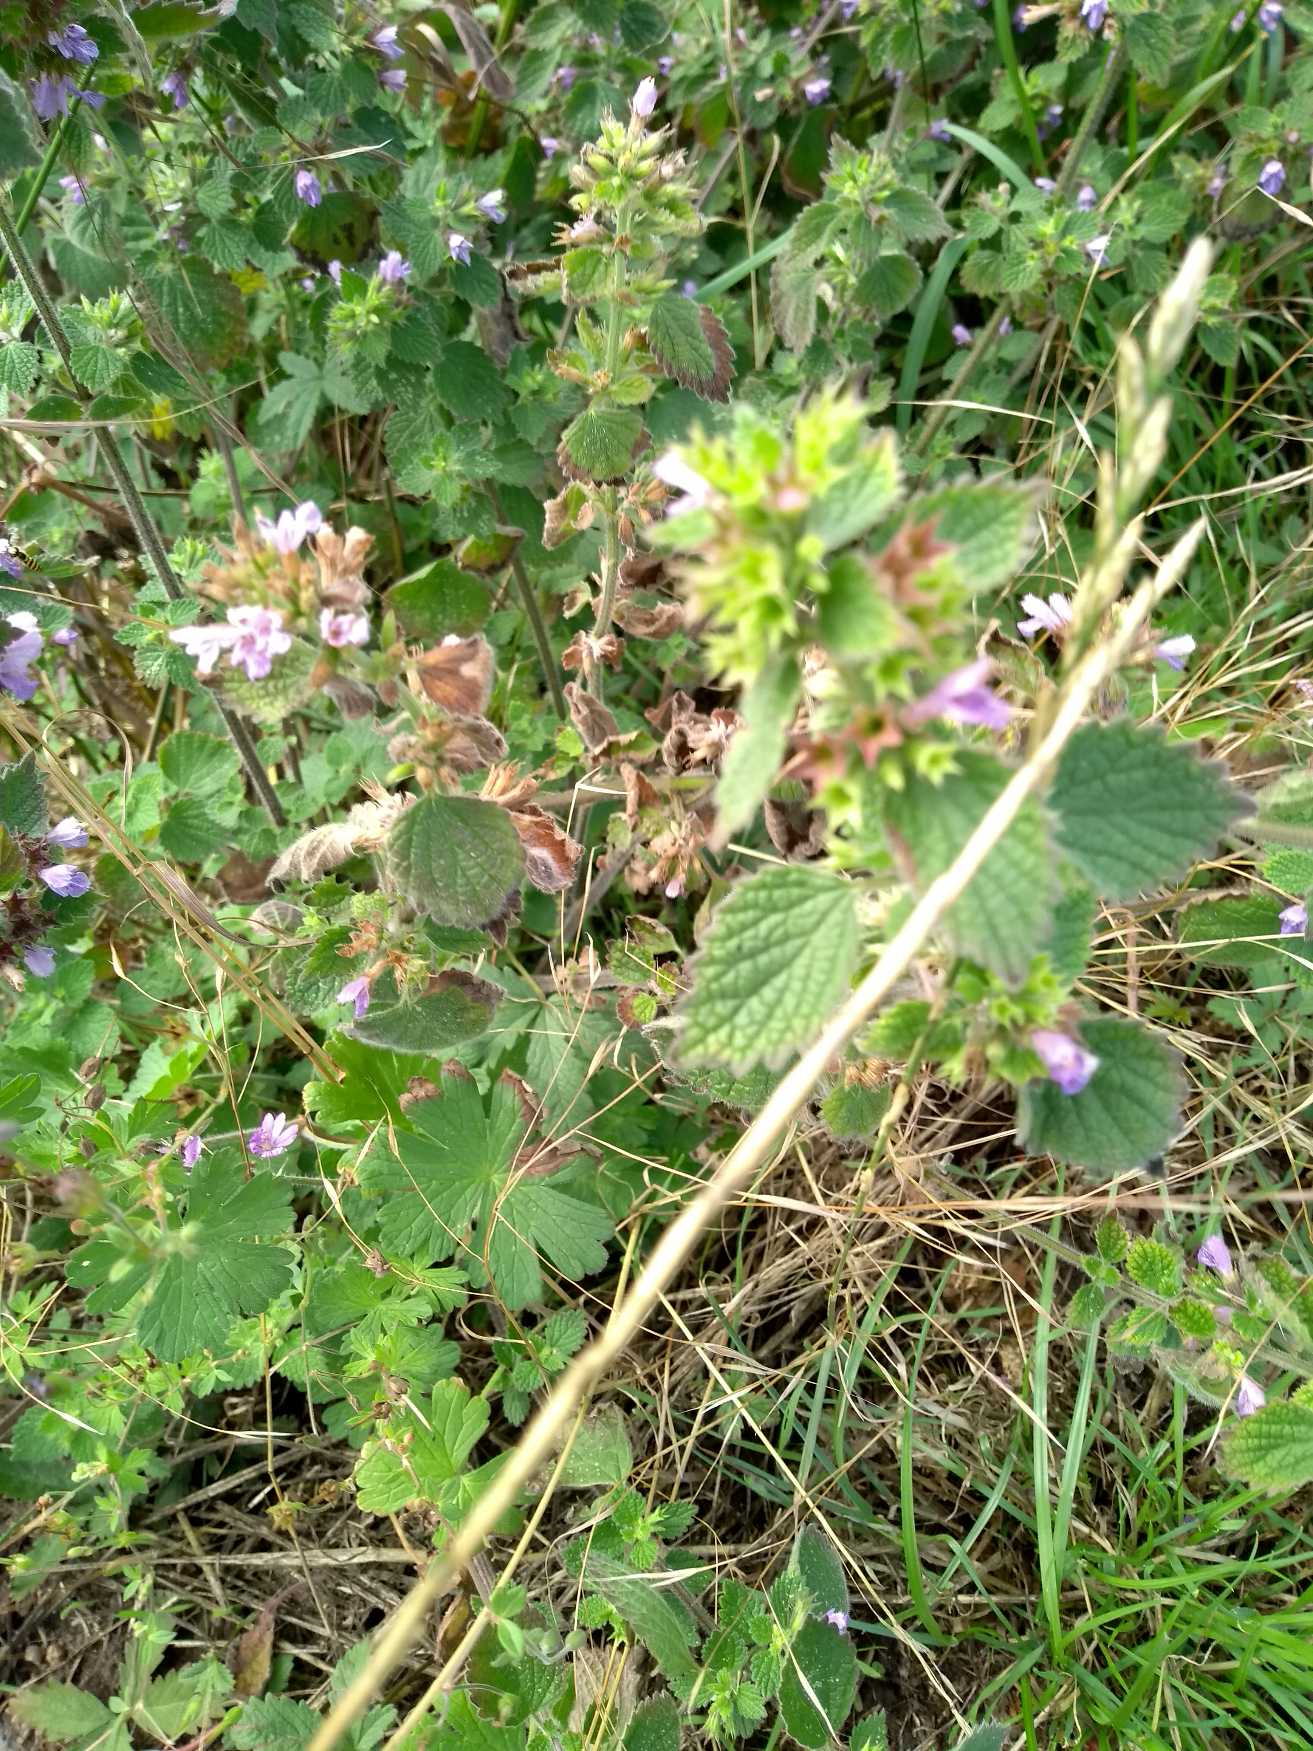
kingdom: Plantae
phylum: Tracheophyta
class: Magnoliopsida
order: Lamiales
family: Lamiaceae
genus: Ballota
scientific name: Ballota nigra
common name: Tandbæger
